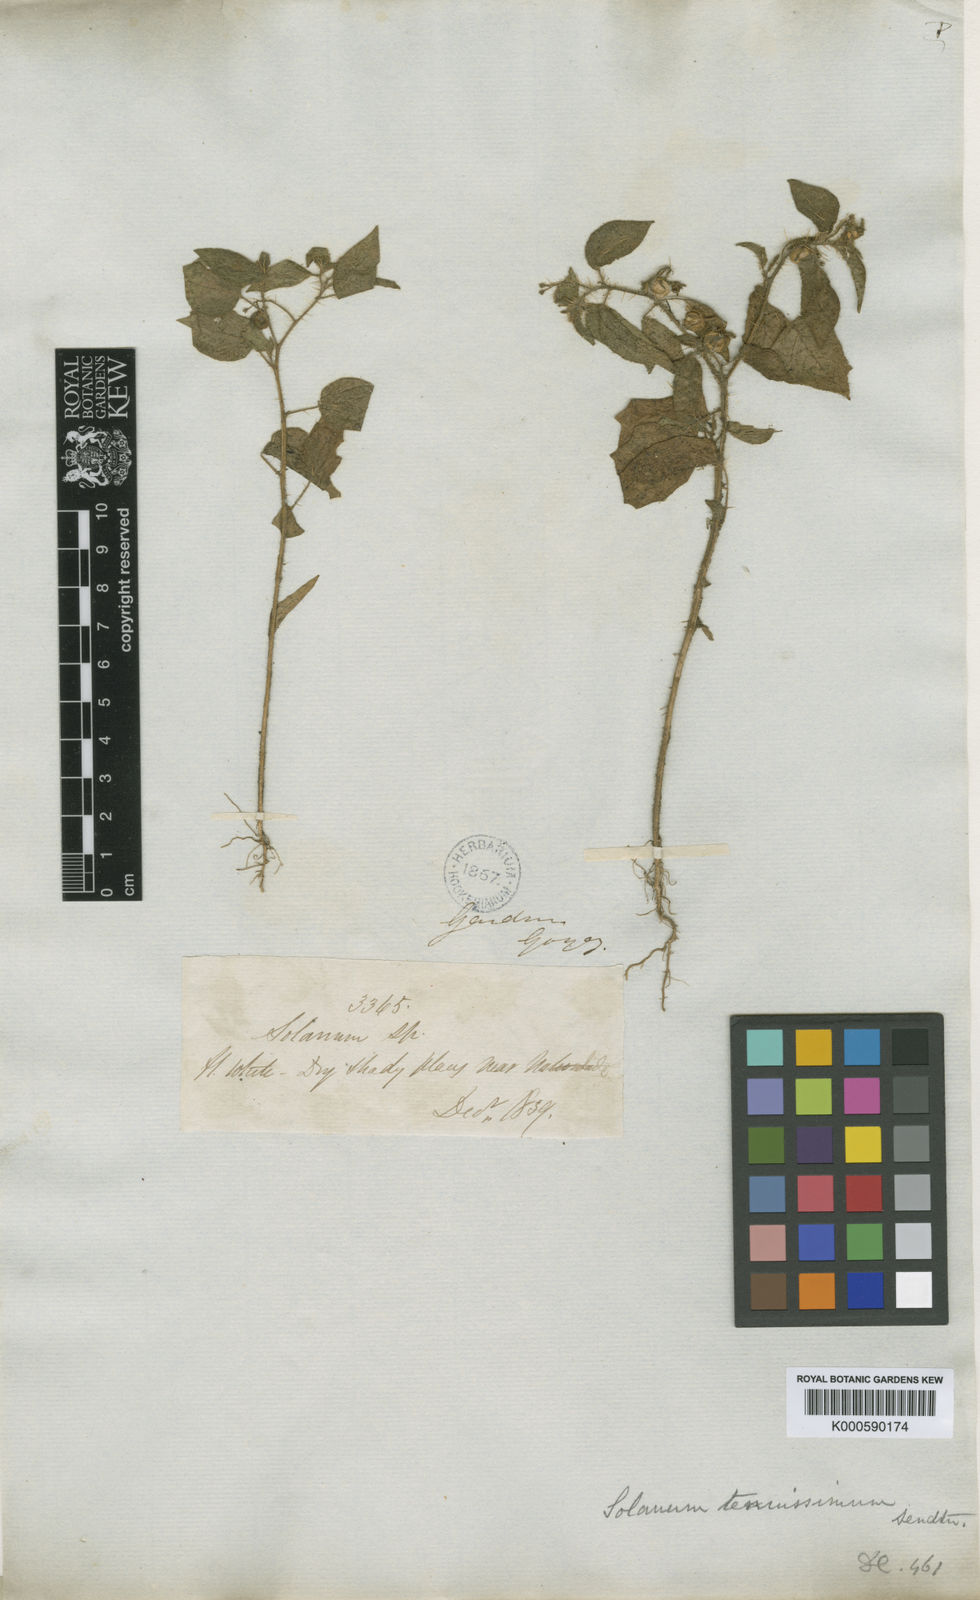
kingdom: Plantae
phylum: Tracheophyta
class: Magnoliopsida
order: Solanales
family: Solanaceae
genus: Solanum
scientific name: Solanum tenuissimum
